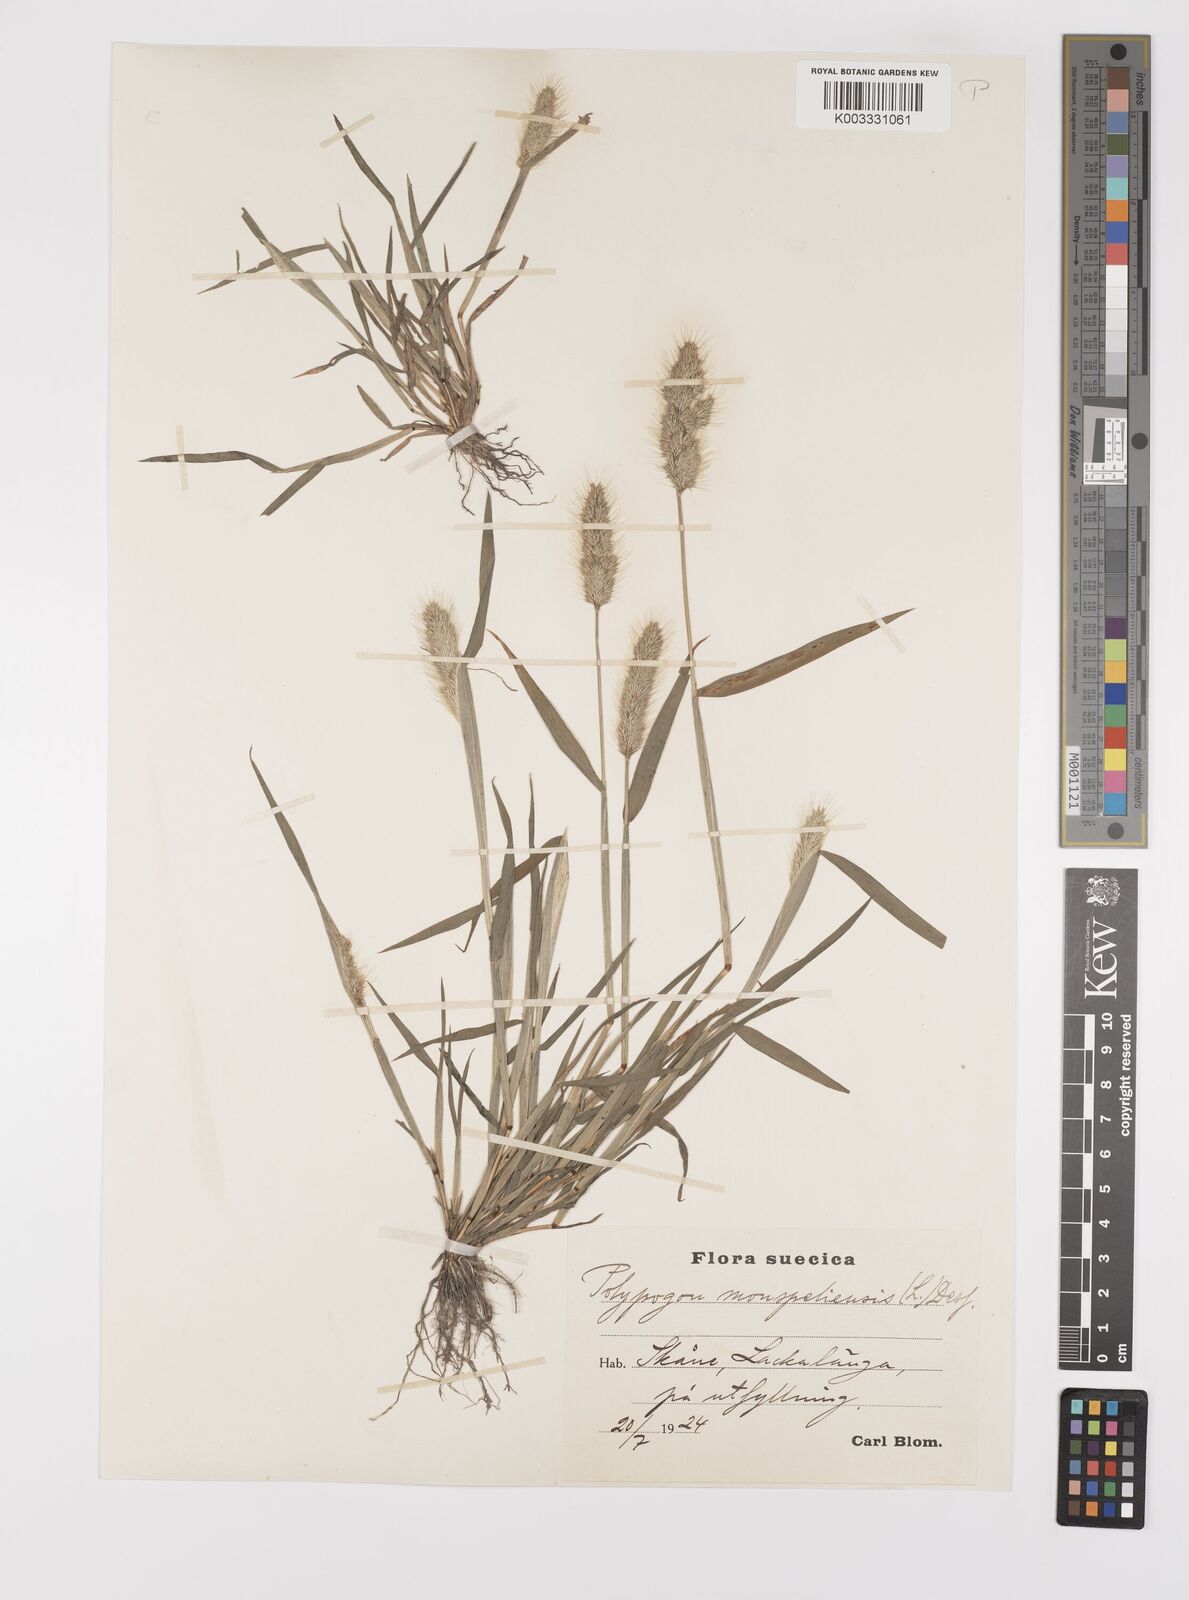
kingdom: Plantae
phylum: Tracheophyta
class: Liliopsida
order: Poales
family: Poaceae
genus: Polypogon
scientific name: Polypogon monspeliensis
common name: Annual rabbitsfoot grass
